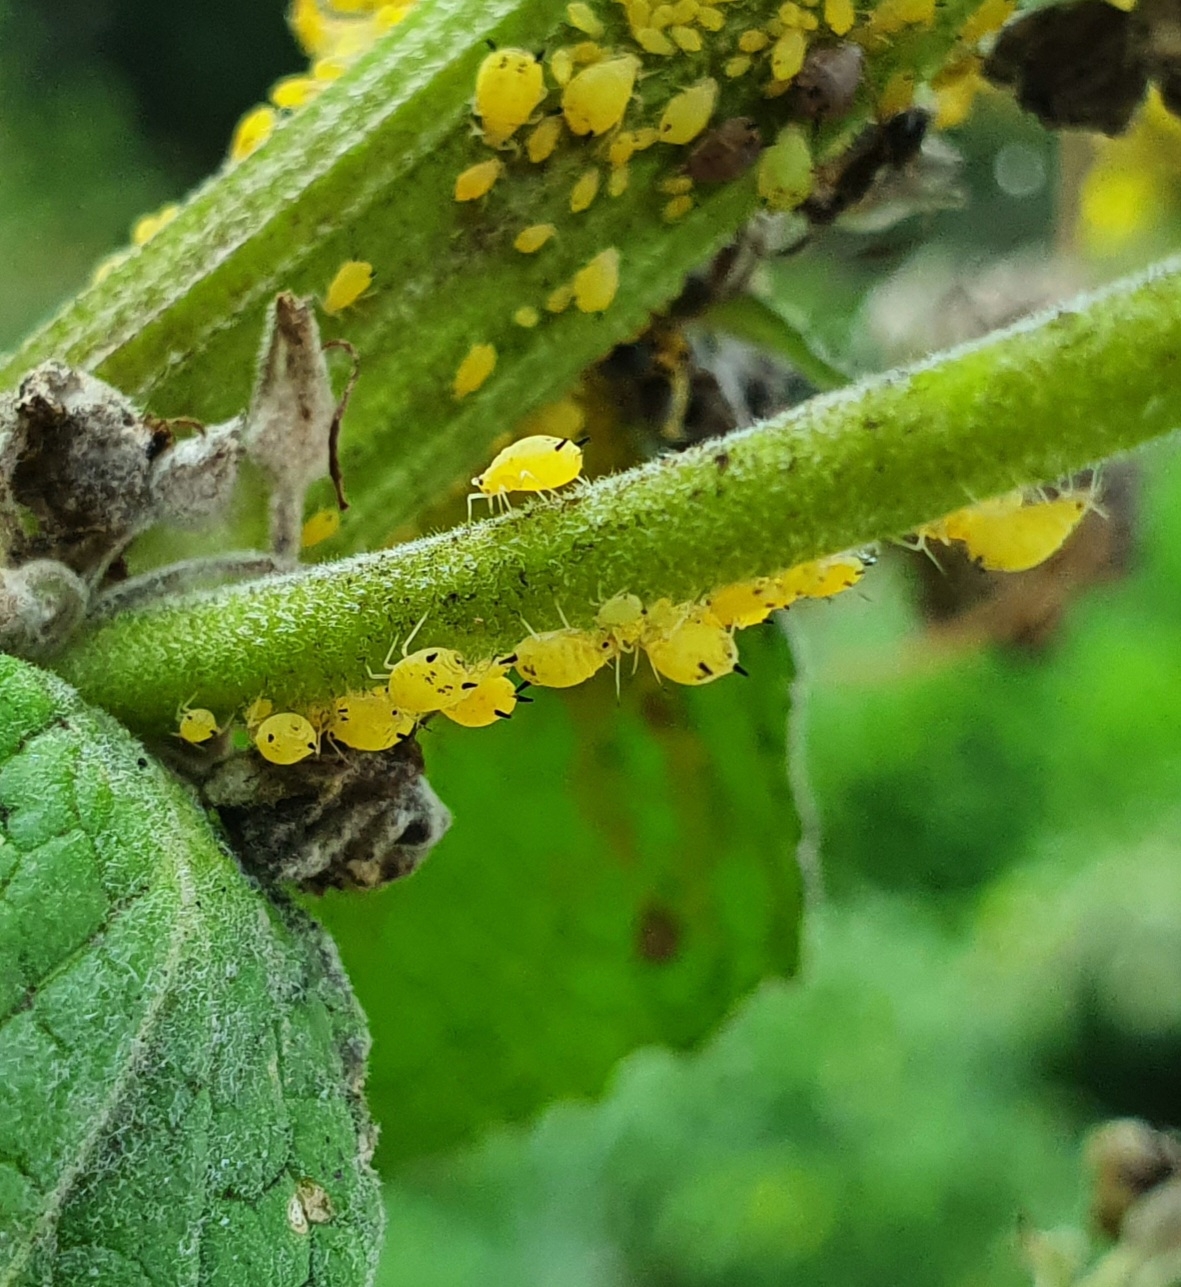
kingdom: Animalia
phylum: Arthropoda
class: Insecta
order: Hemiptera
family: Aphididae
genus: Aphis
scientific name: Aphis verbasci
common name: Kongelysbladlus
